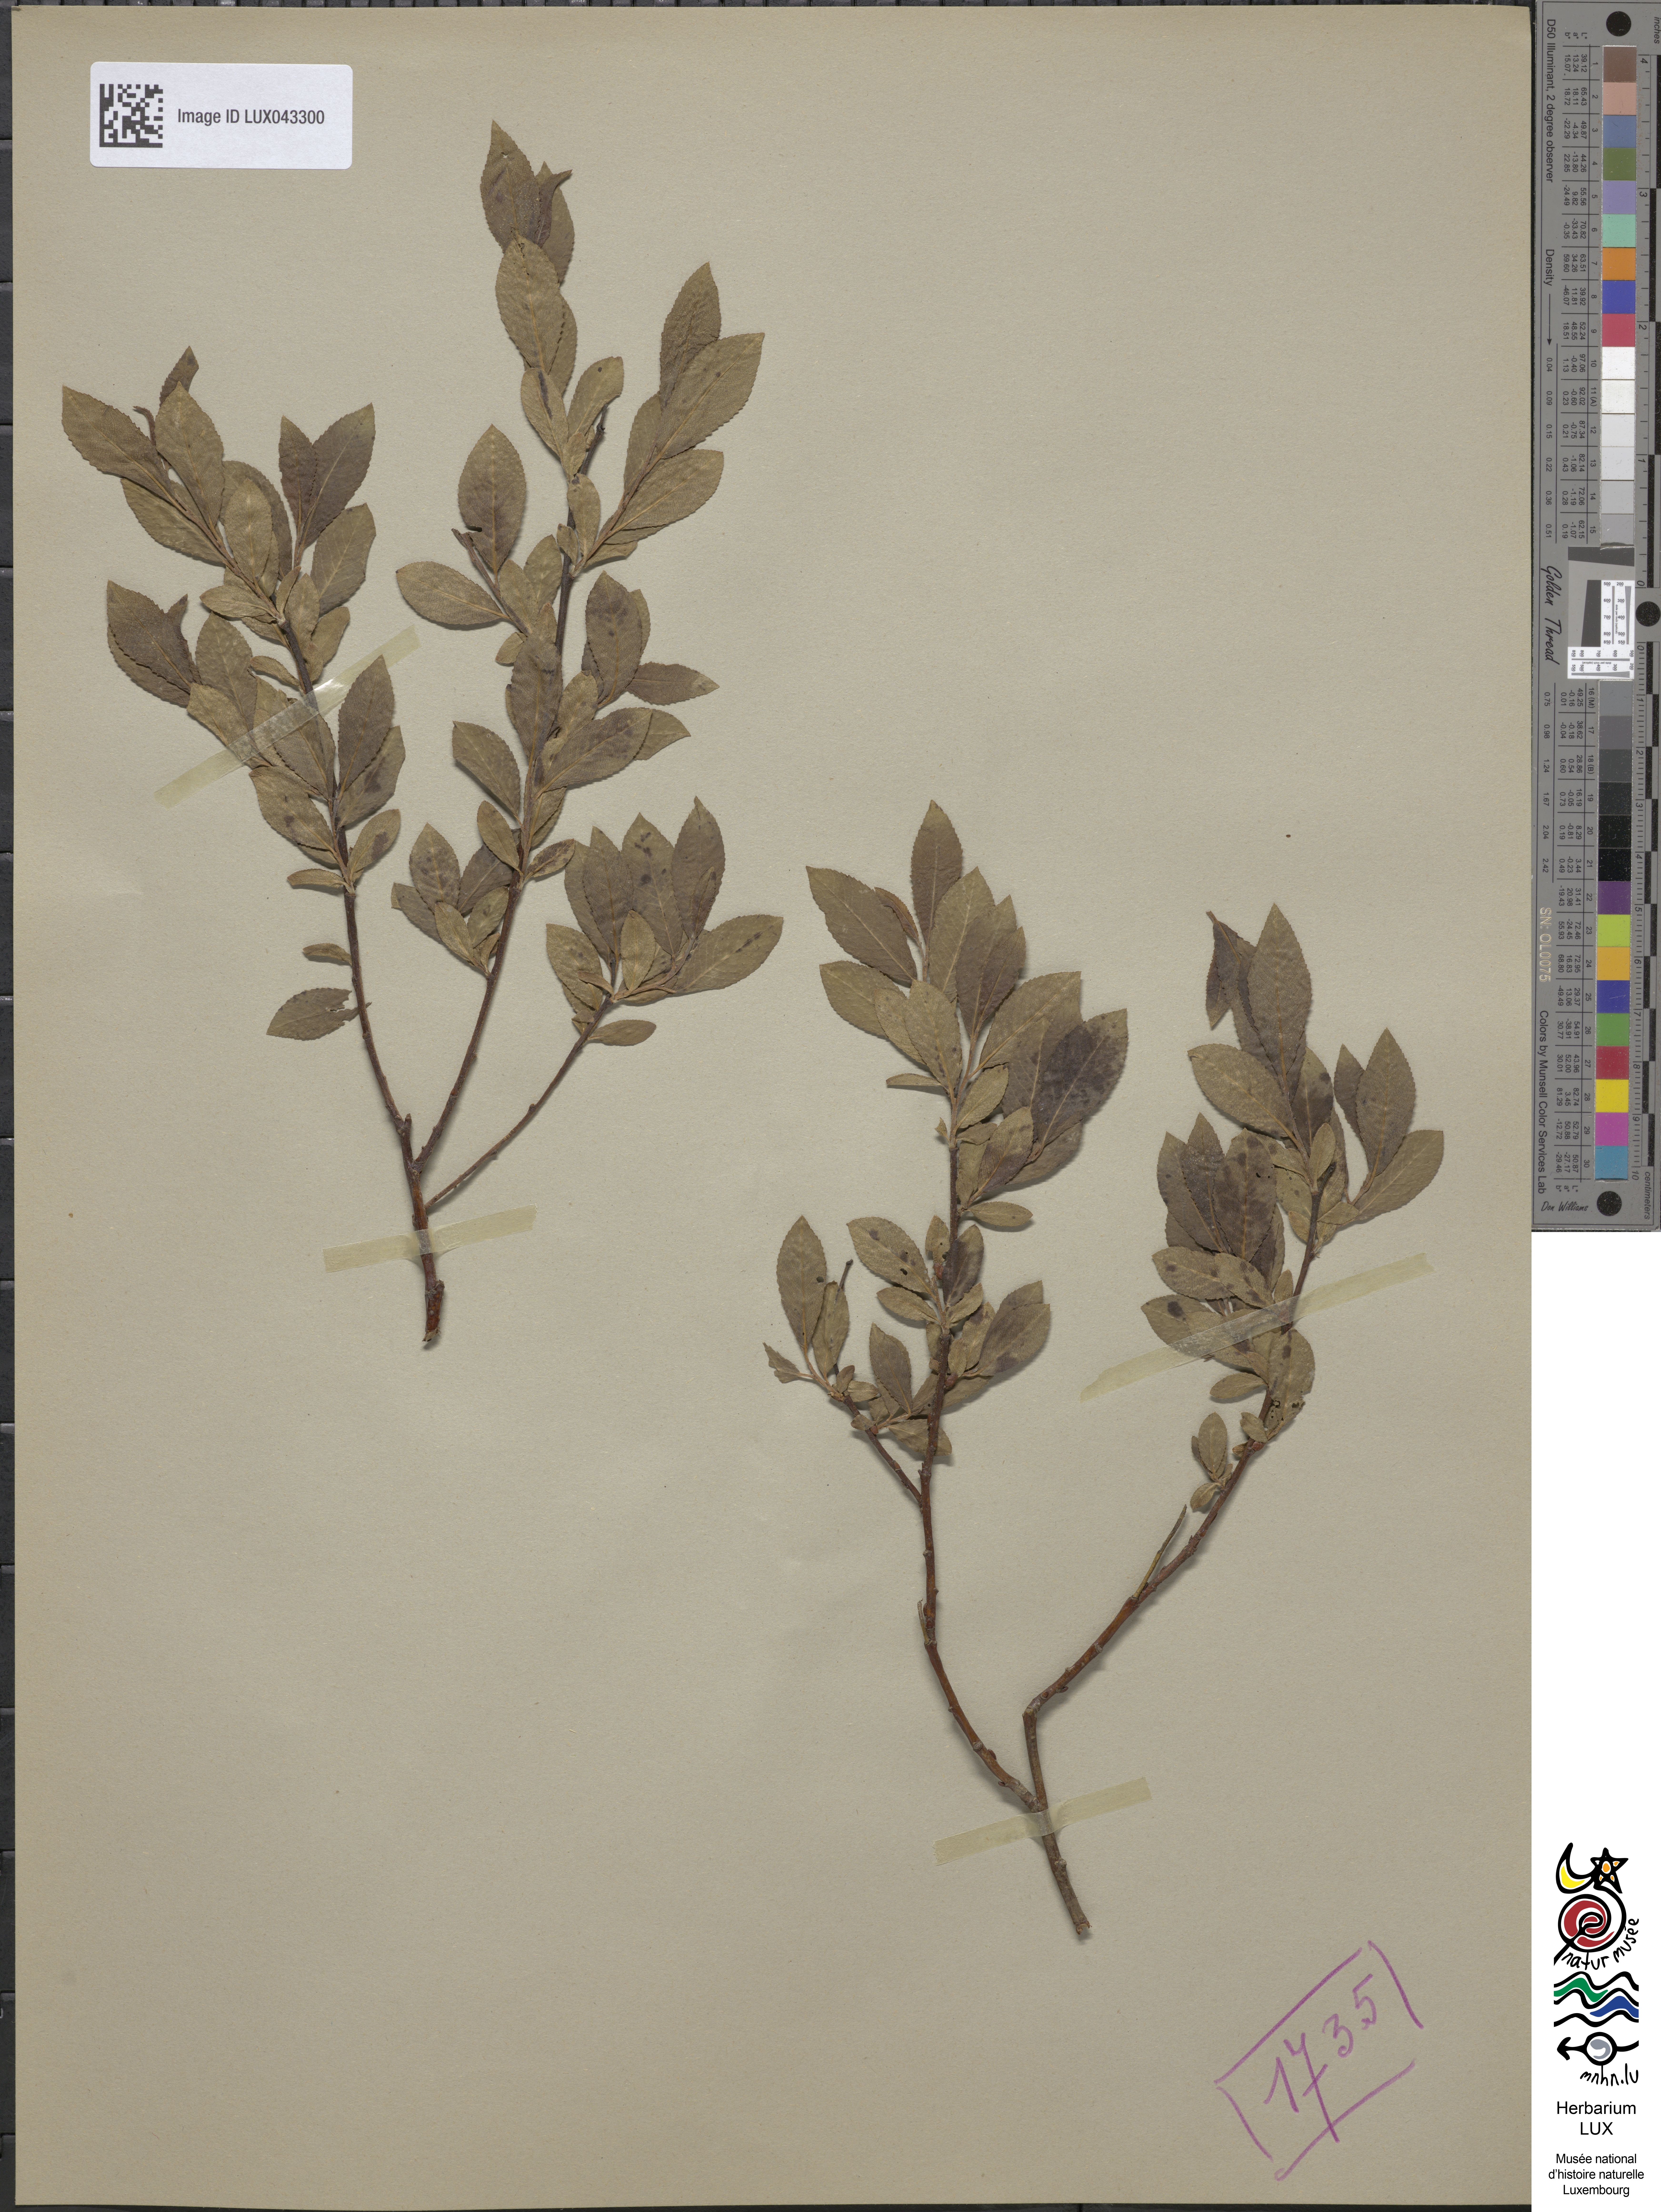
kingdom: Plantae
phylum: Tracheophyta
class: Magnoliopsida
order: Malpighiales
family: Salicaceae
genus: Salix
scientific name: Salix myrsinifolia
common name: Dark-leaved willow
